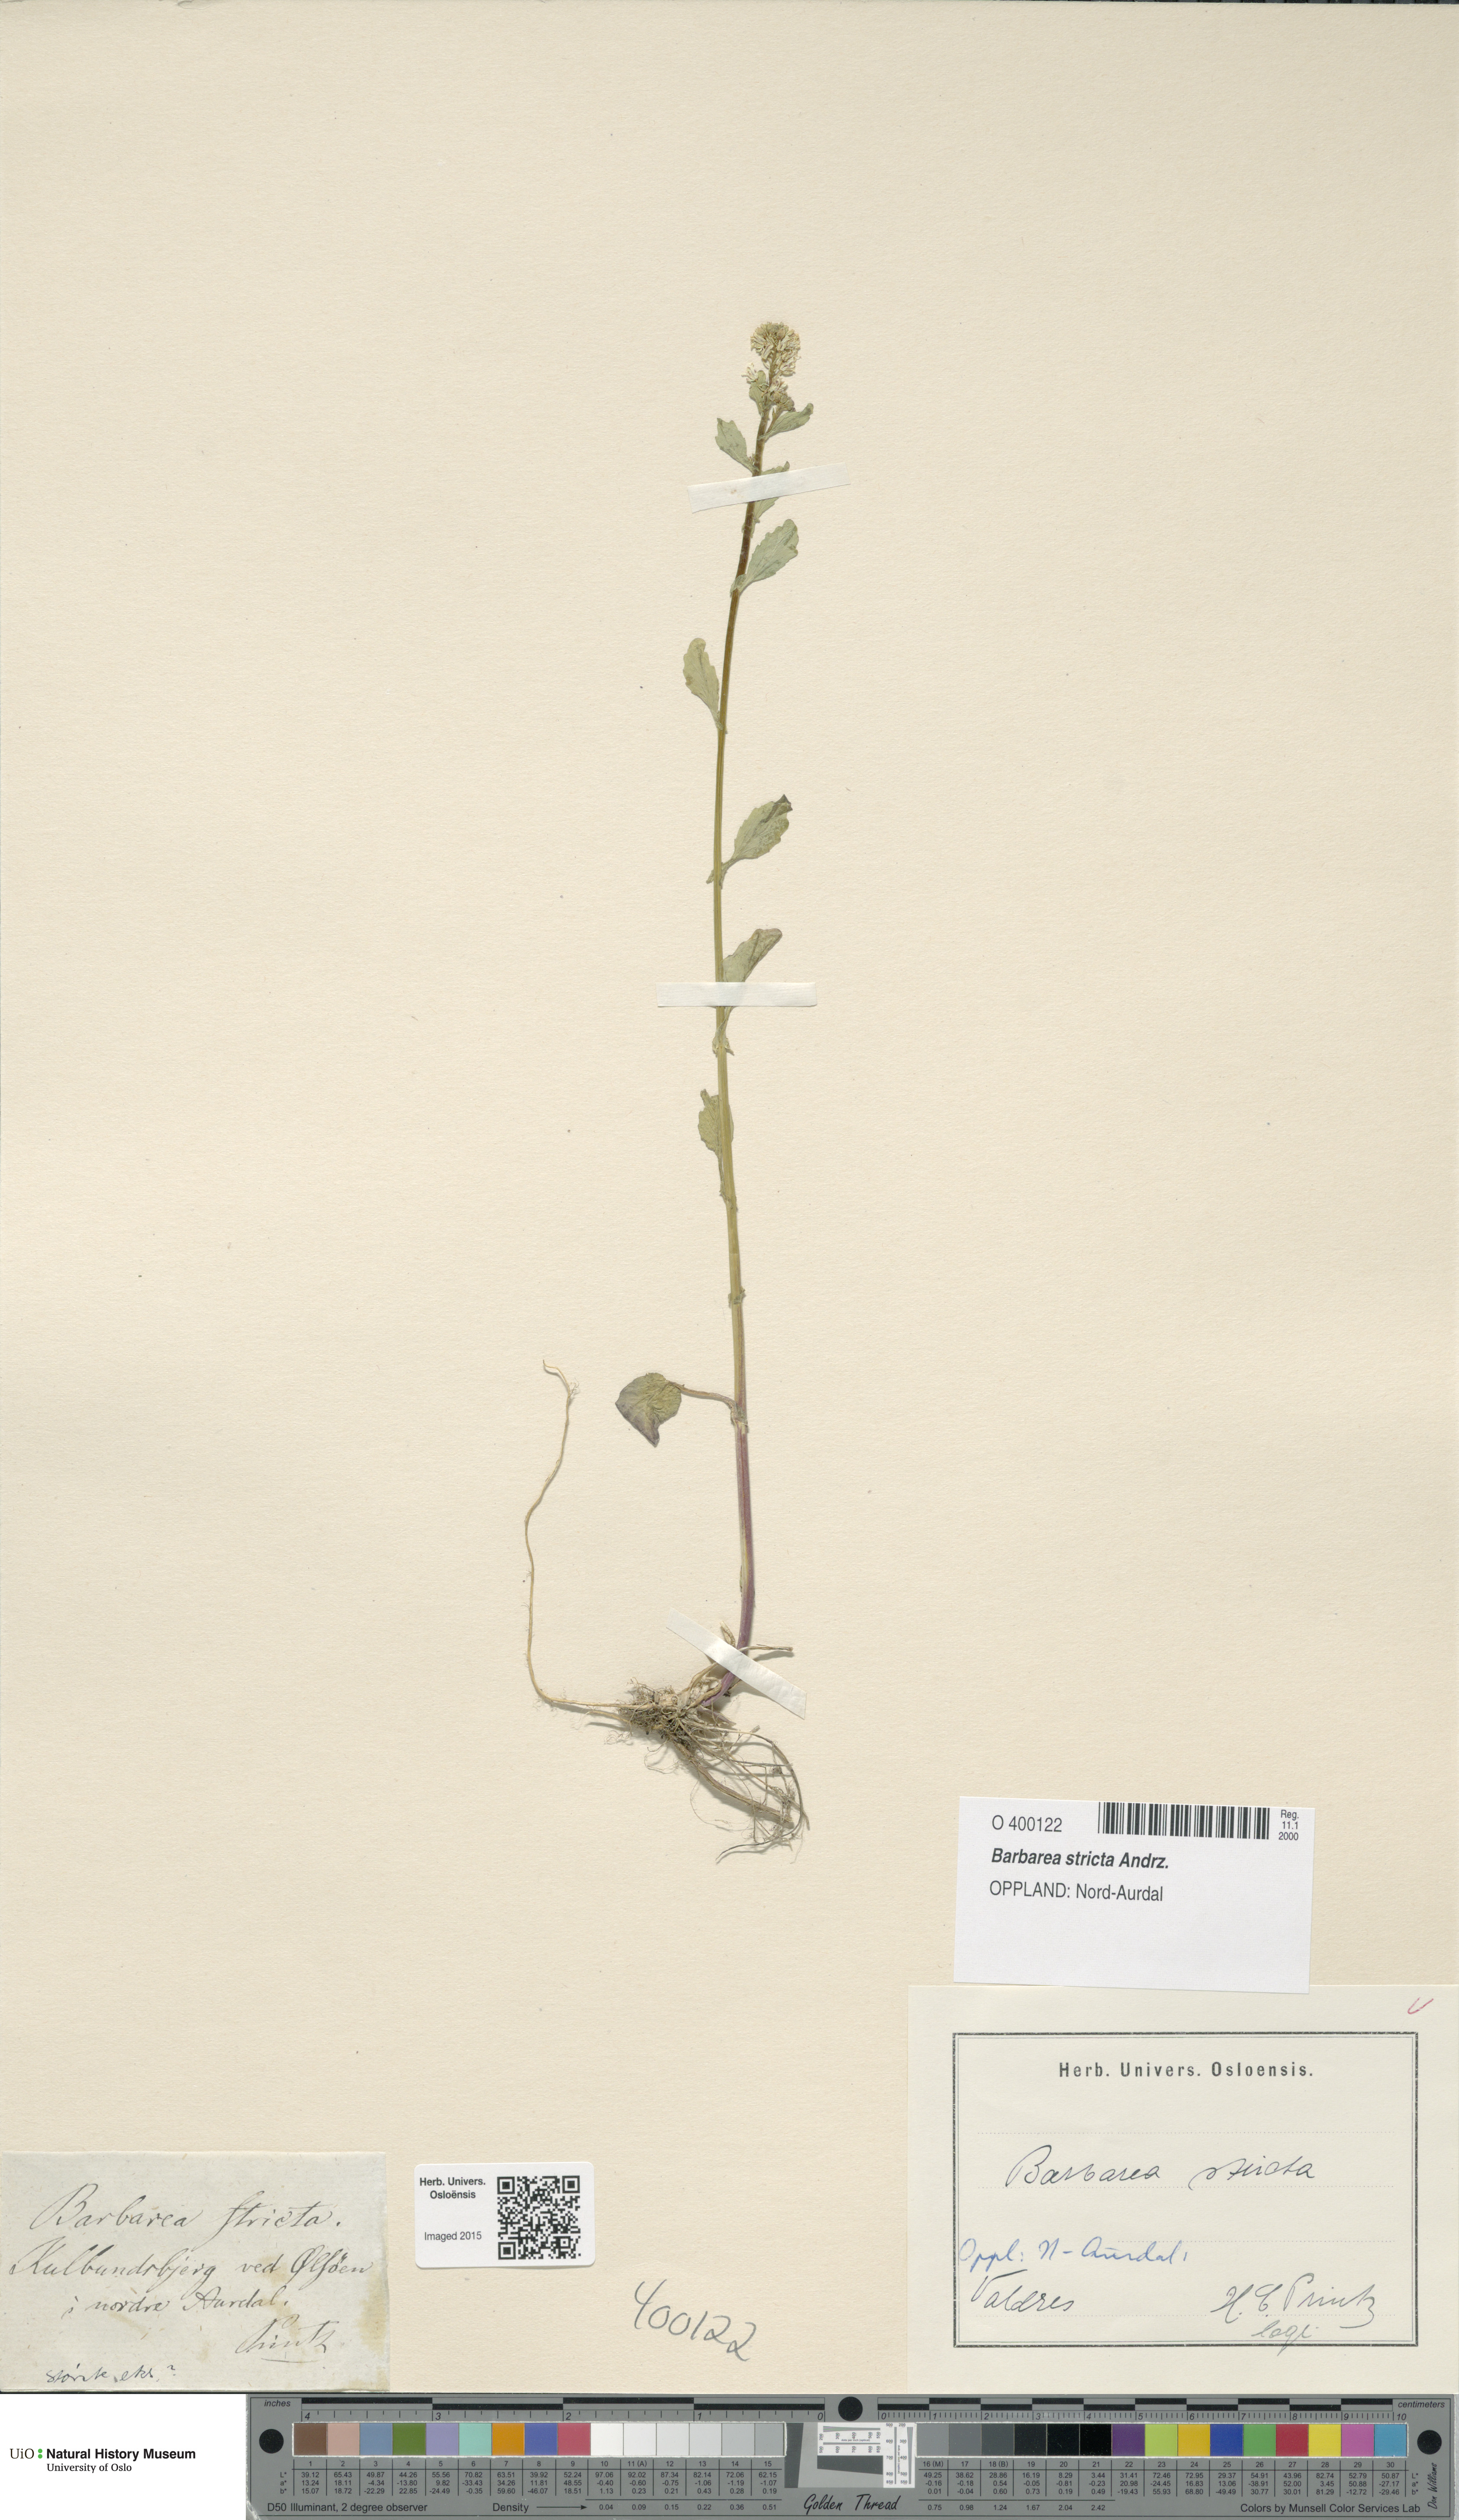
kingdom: Plantae
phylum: Tracheophyta
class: Magnoliopsida
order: Brassicales
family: Brassicaceae
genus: Barbarea
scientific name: Barbarea stricta
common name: Small-flowered winter-cress
